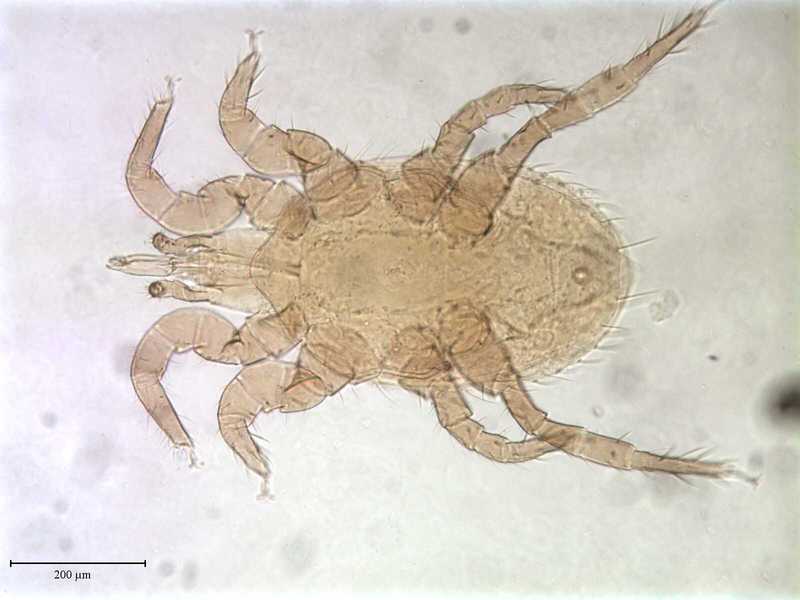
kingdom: Animalia
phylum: Arthropoda
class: Arachnida
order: Mesostigmata
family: Laelapidae
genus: Androlaelaps
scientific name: Androlaelaps
